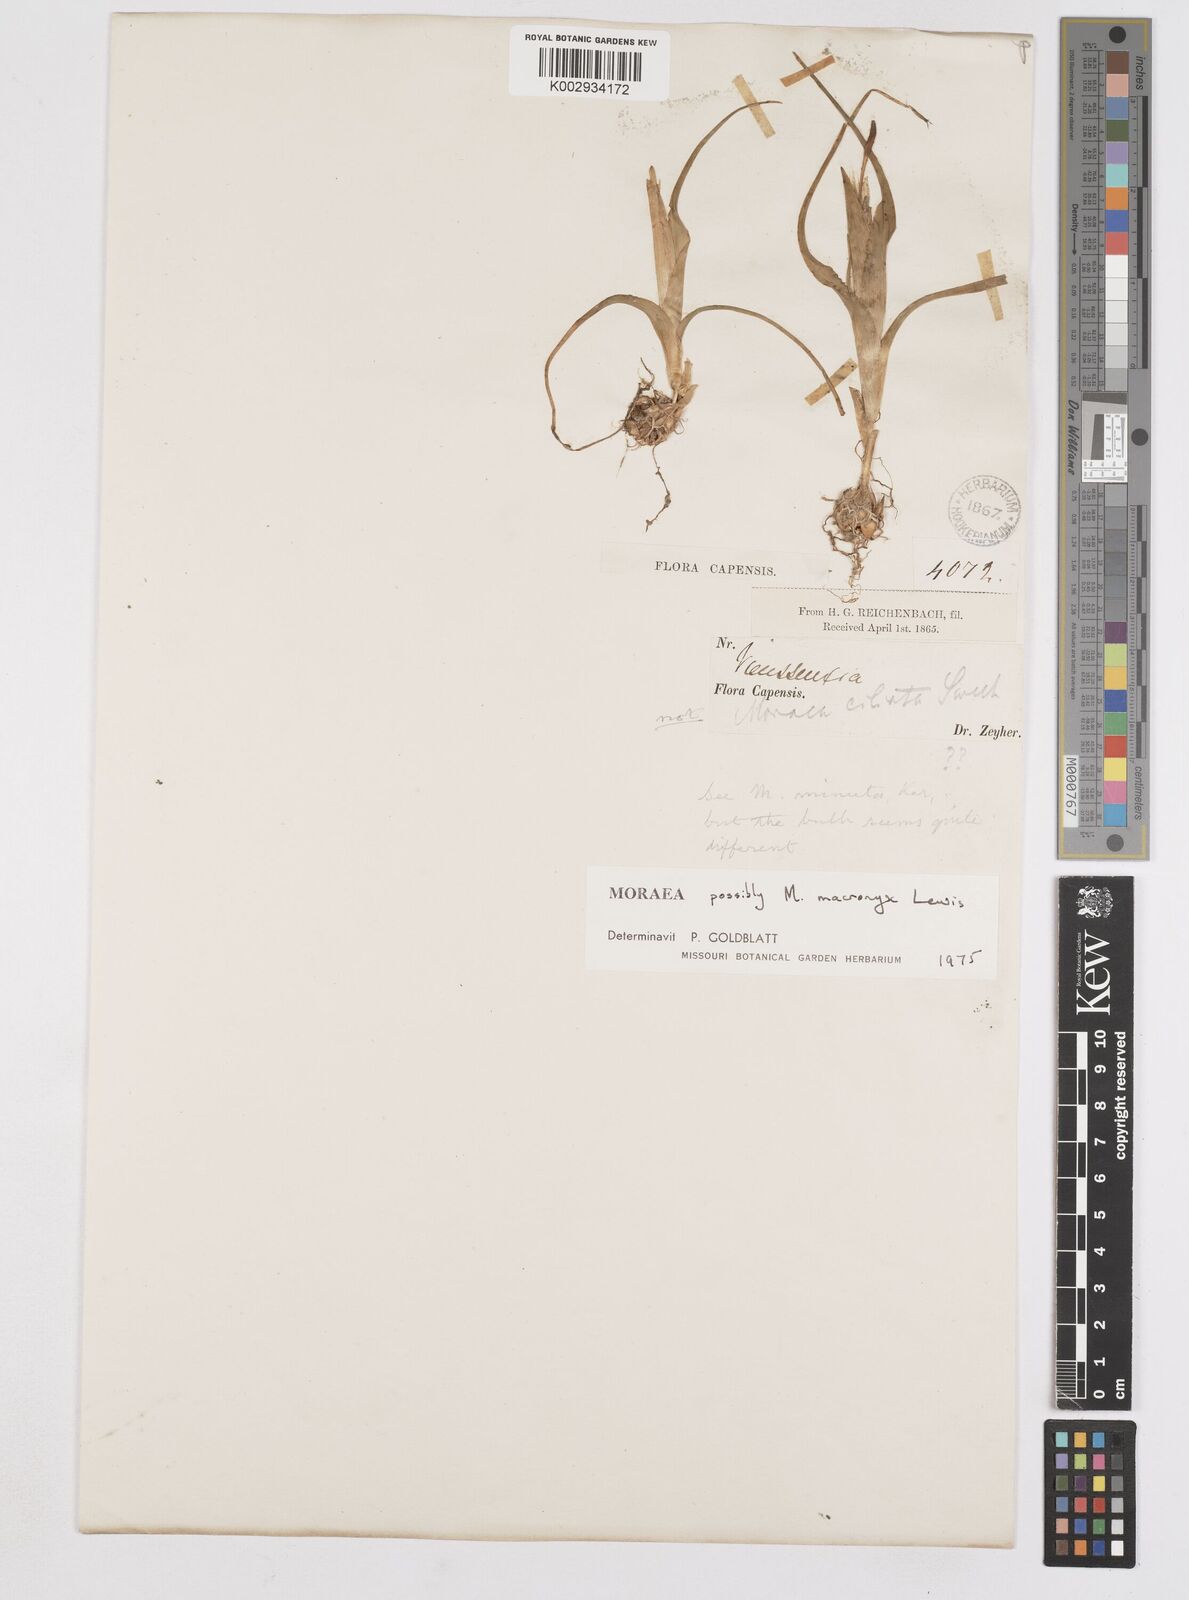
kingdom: Plantae
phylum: Tracheophyta
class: Liliopsida
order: Asparagales
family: Iridaceae
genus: Moraea
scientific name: Moraea macronyx
